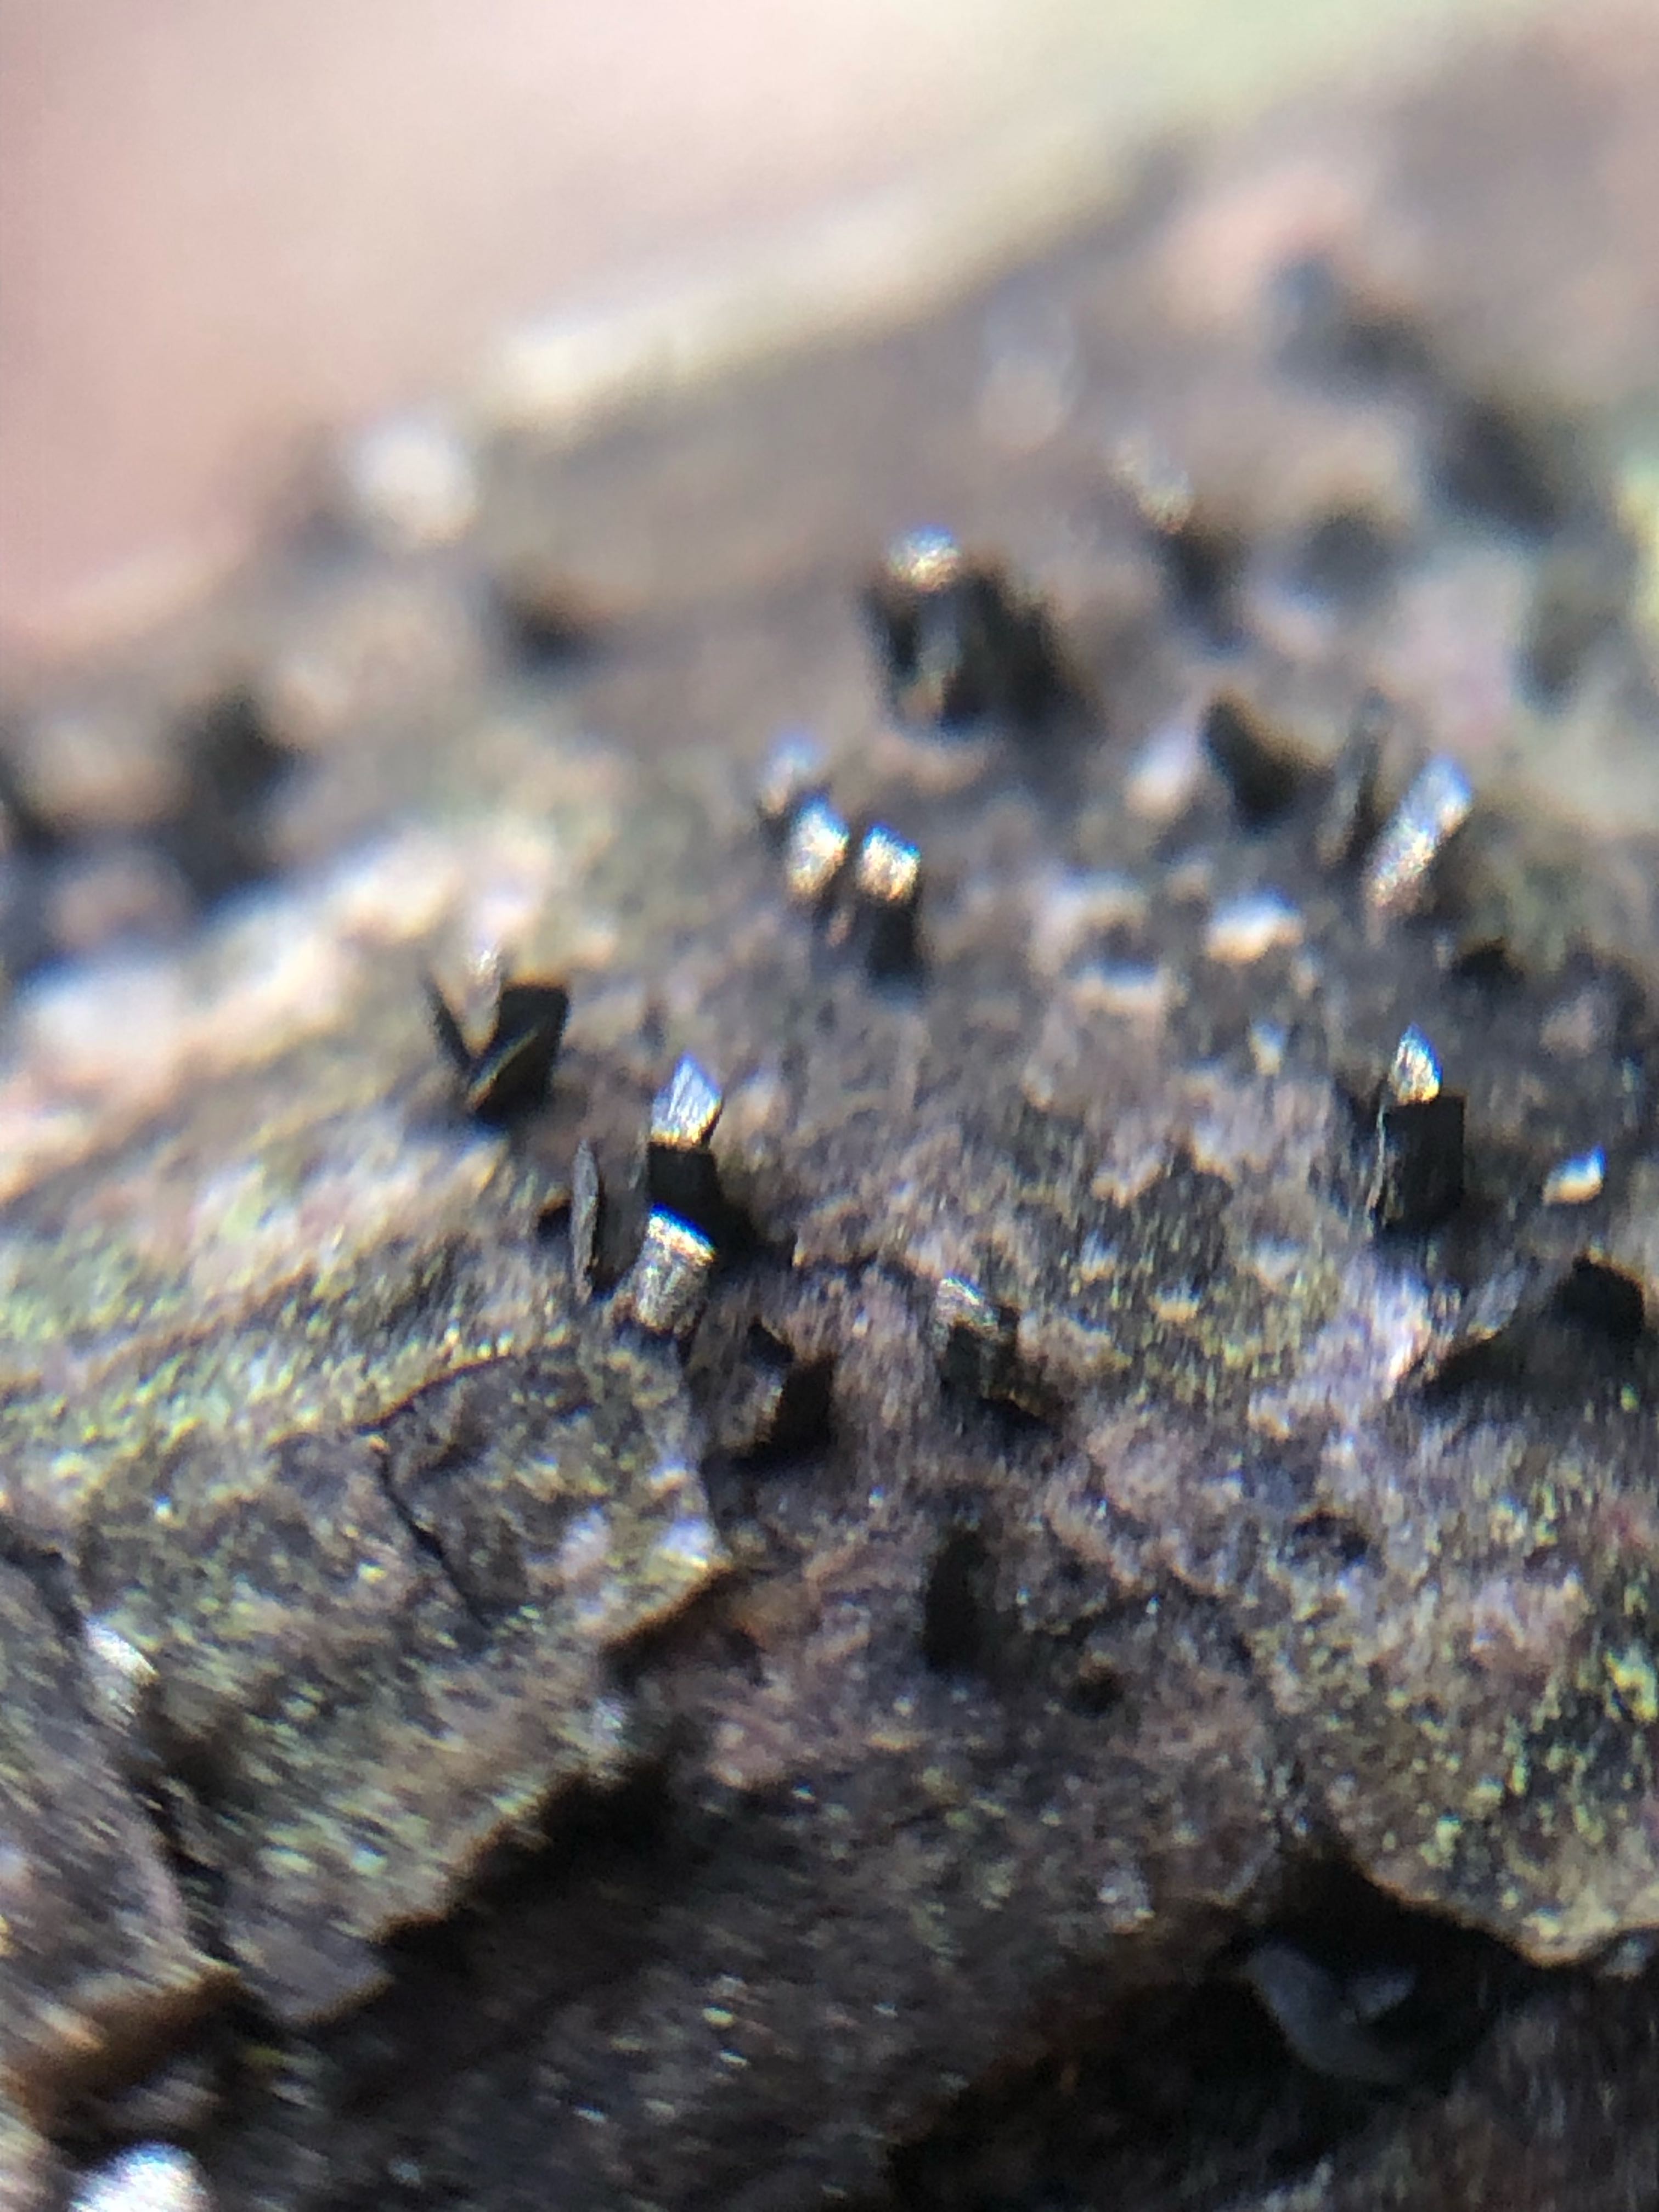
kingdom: Fungi
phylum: Ascomycota
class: Eurotiomycetes
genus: Glyphium
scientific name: Glyphium elatum
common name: kuløkse
